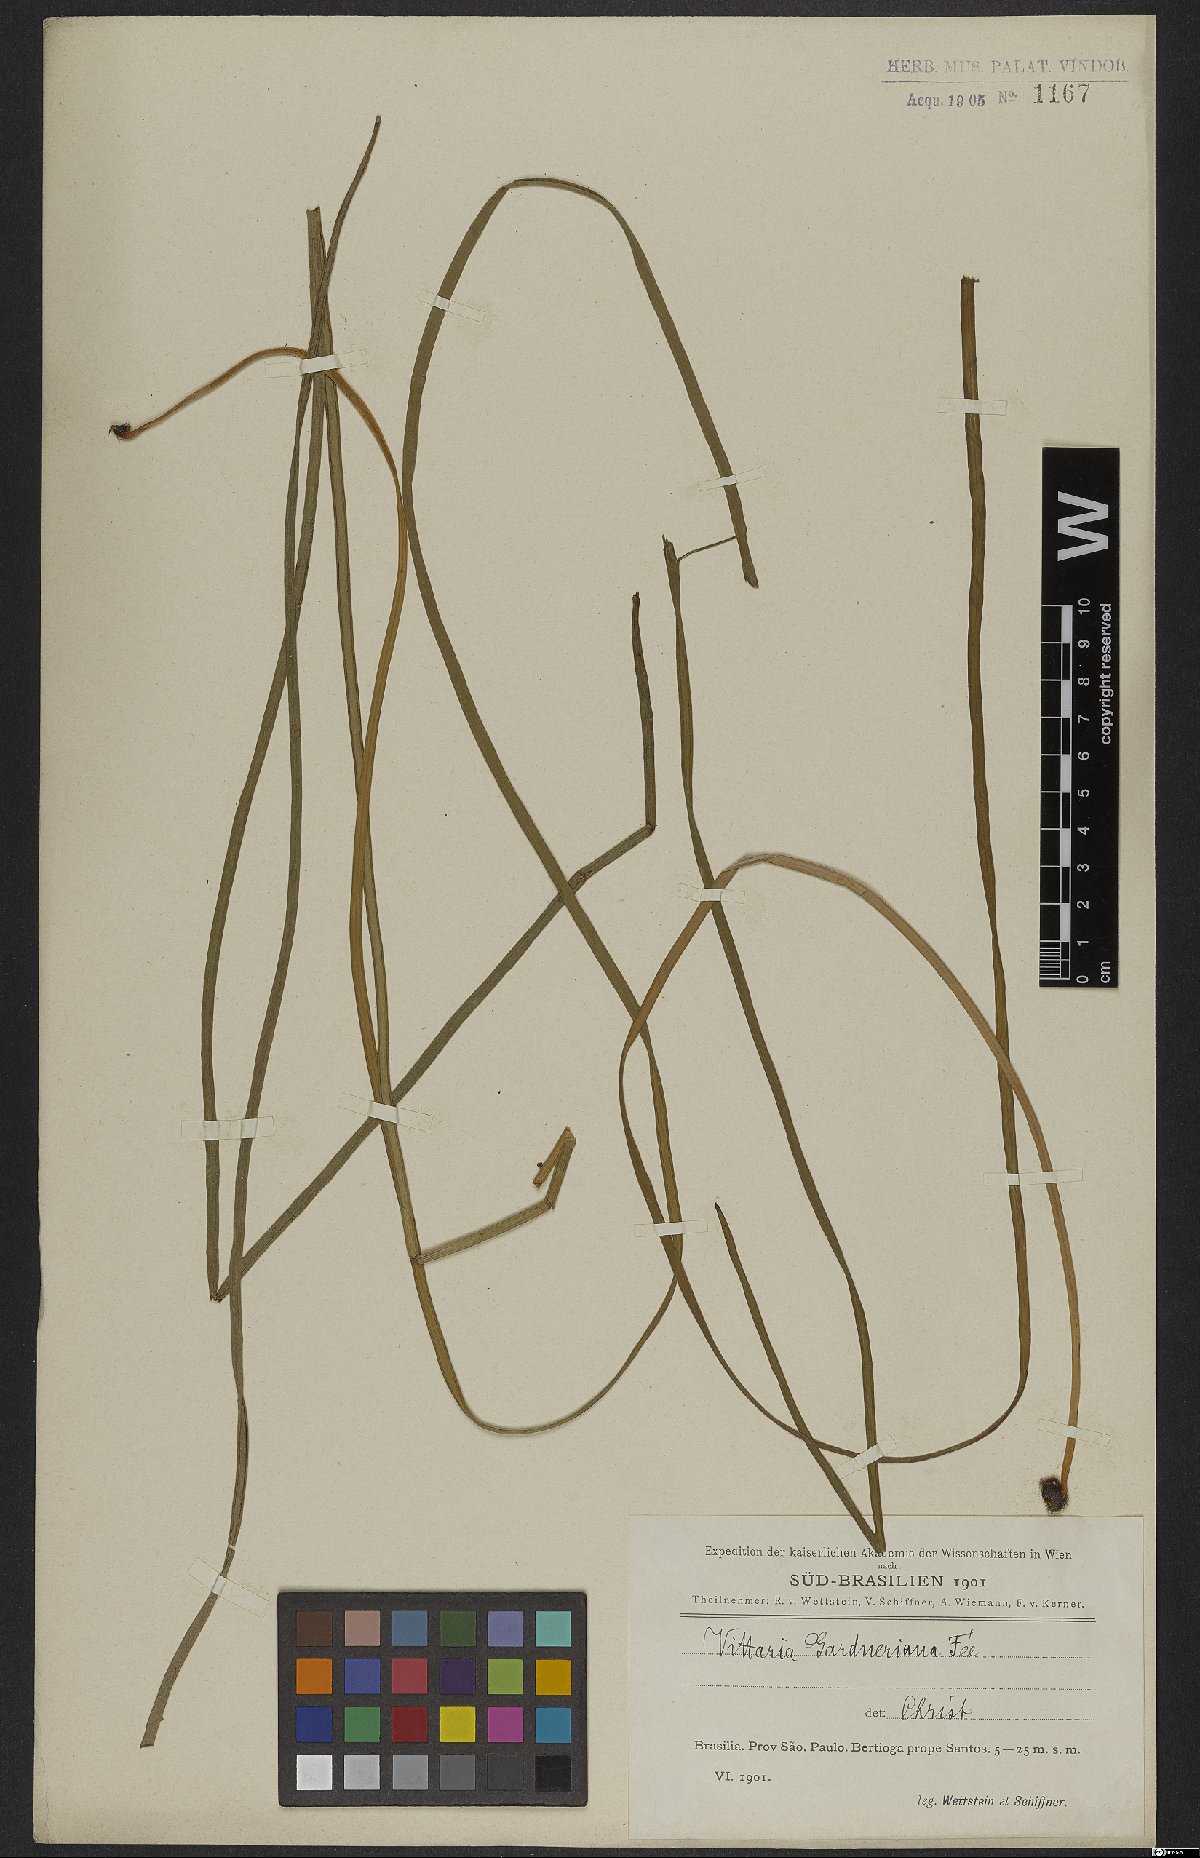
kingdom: Plantae
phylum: Tracheophyta
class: Polypodiopsida
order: Polypodiales
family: Pteridaceae
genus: Ananthacorus
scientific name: Ananthacorus angustifolius
